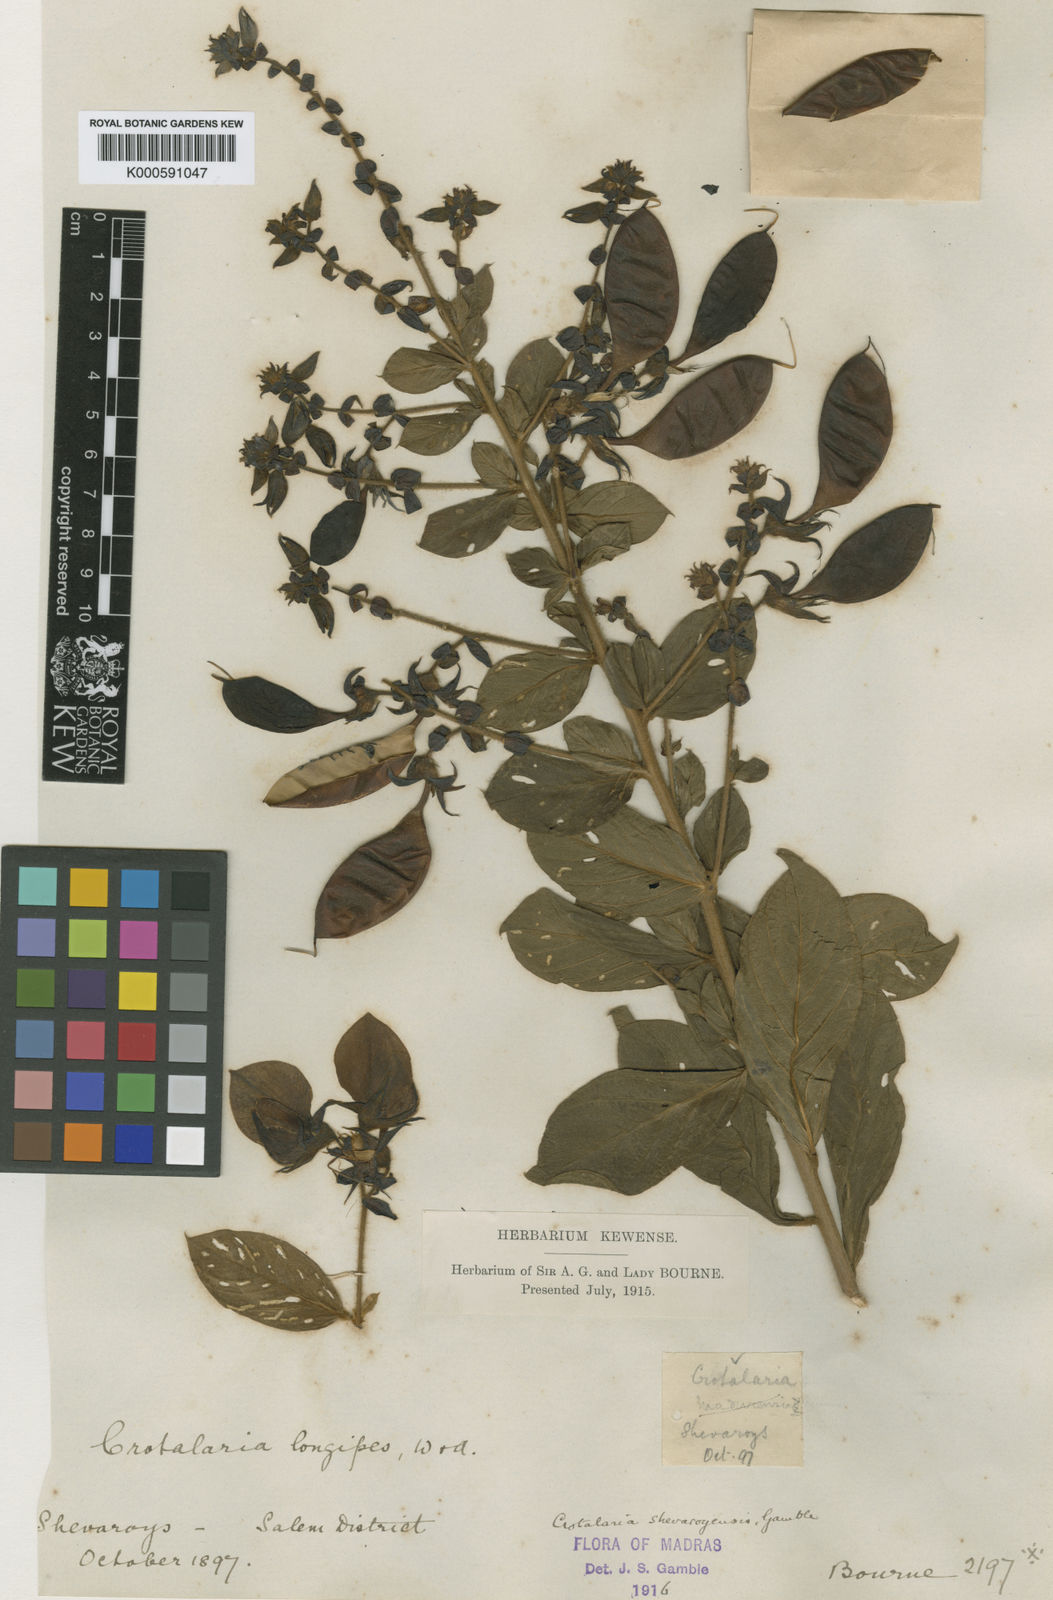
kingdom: Plantae
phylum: Tracheophyta
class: Magnoliopsida
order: Fabales
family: Fabaceae
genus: Crotalaria
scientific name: Crotalaria shevaroyensis
